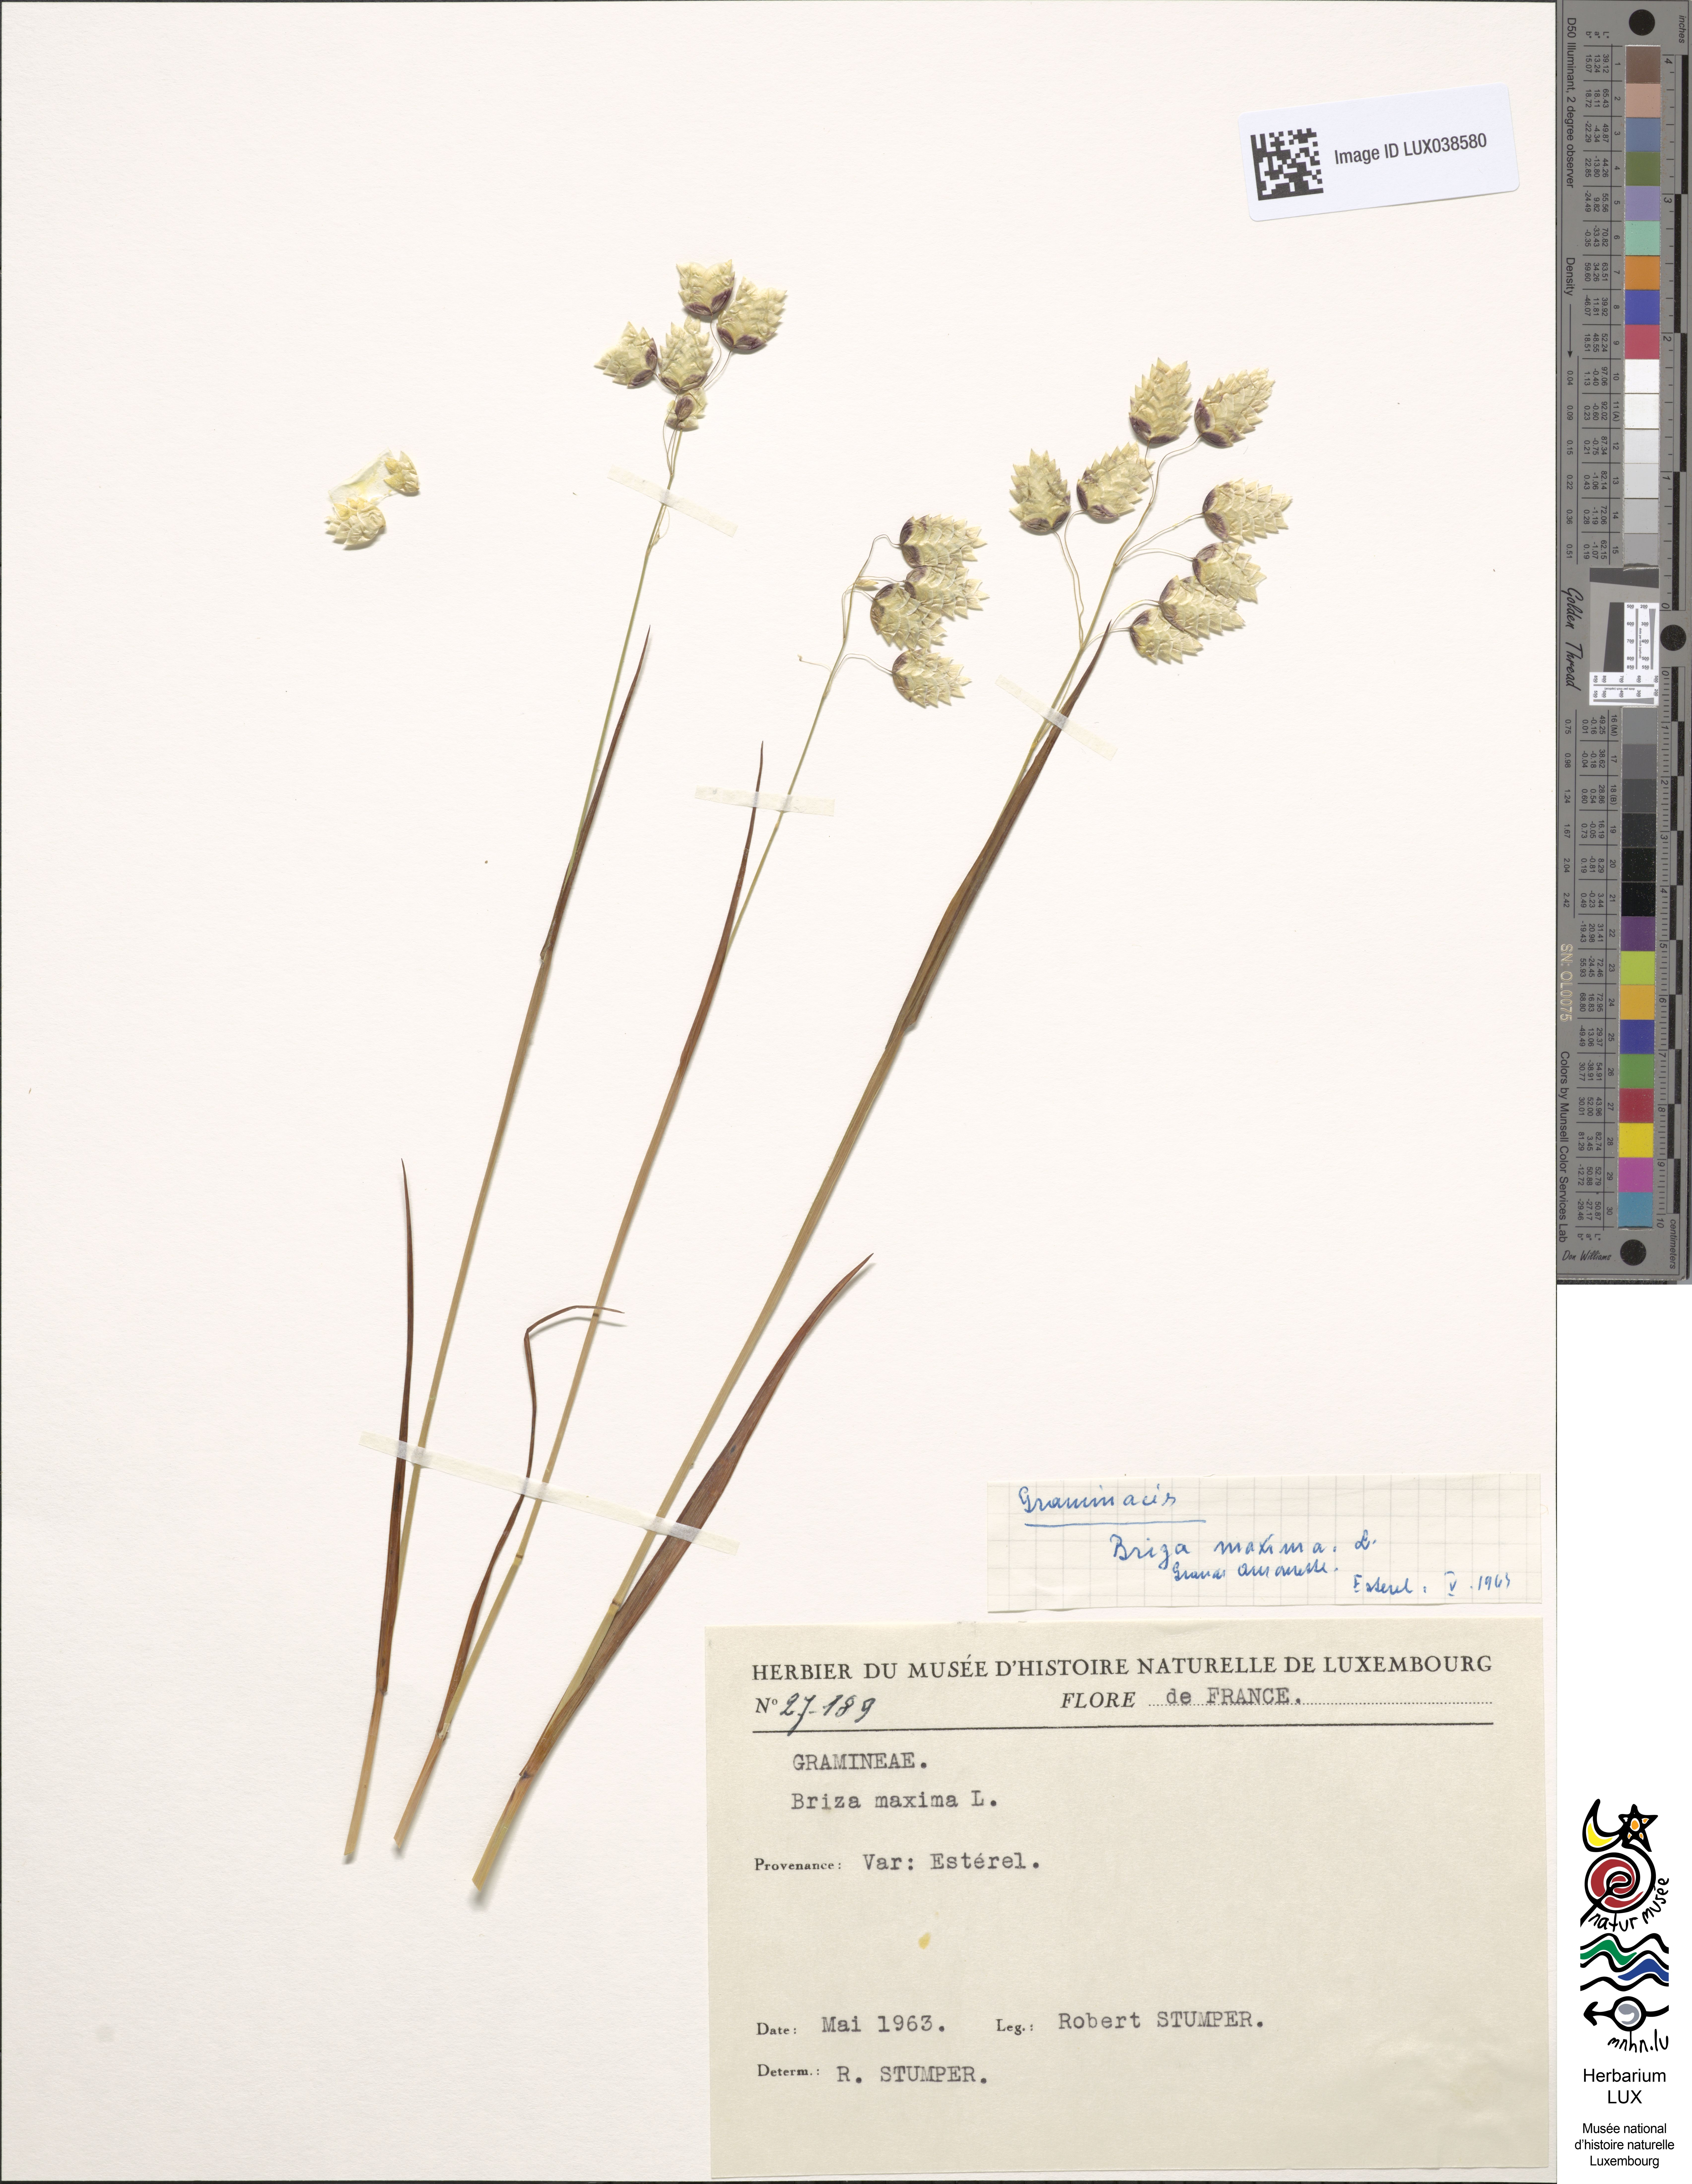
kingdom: Plantae
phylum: Tracheophyta
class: Liliopsida
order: Poales
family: Poaceae
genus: Briza
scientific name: Briza maxima
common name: Big quakinggrass
